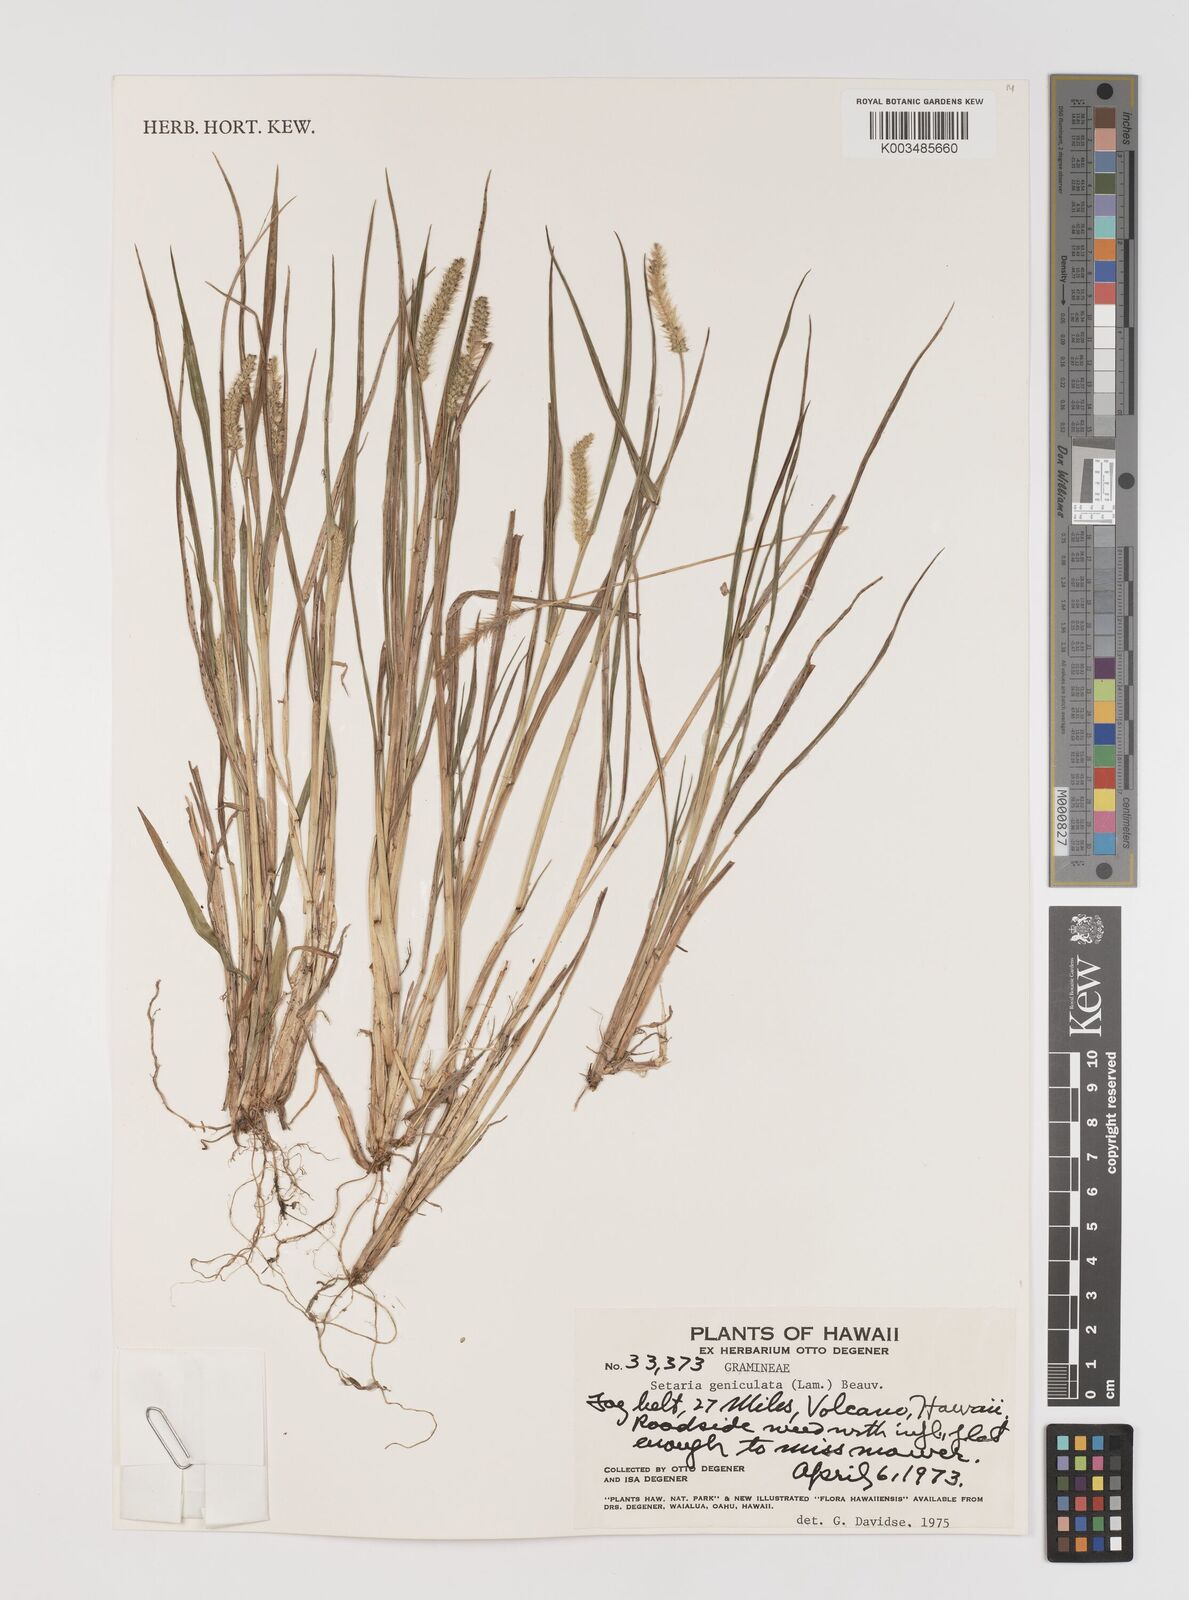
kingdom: Plantae
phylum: Tracheophyta
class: Liliopsida
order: Poales
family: Poaceae
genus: Setaria
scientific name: Setaria parviflora
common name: Knotroot bristle-grass
